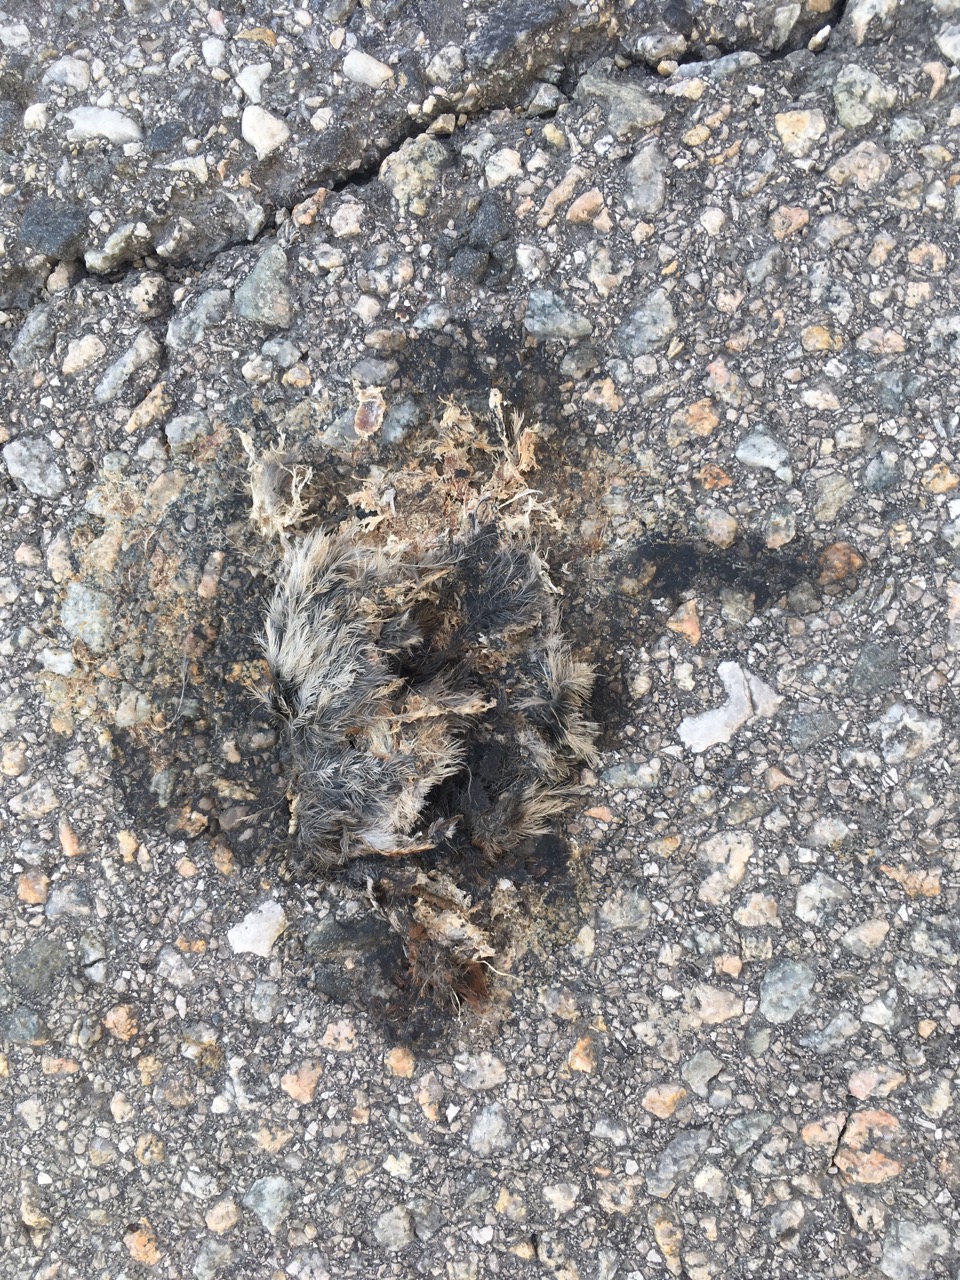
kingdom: Animalia
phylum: Chordata
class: Aves
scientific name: Aves
